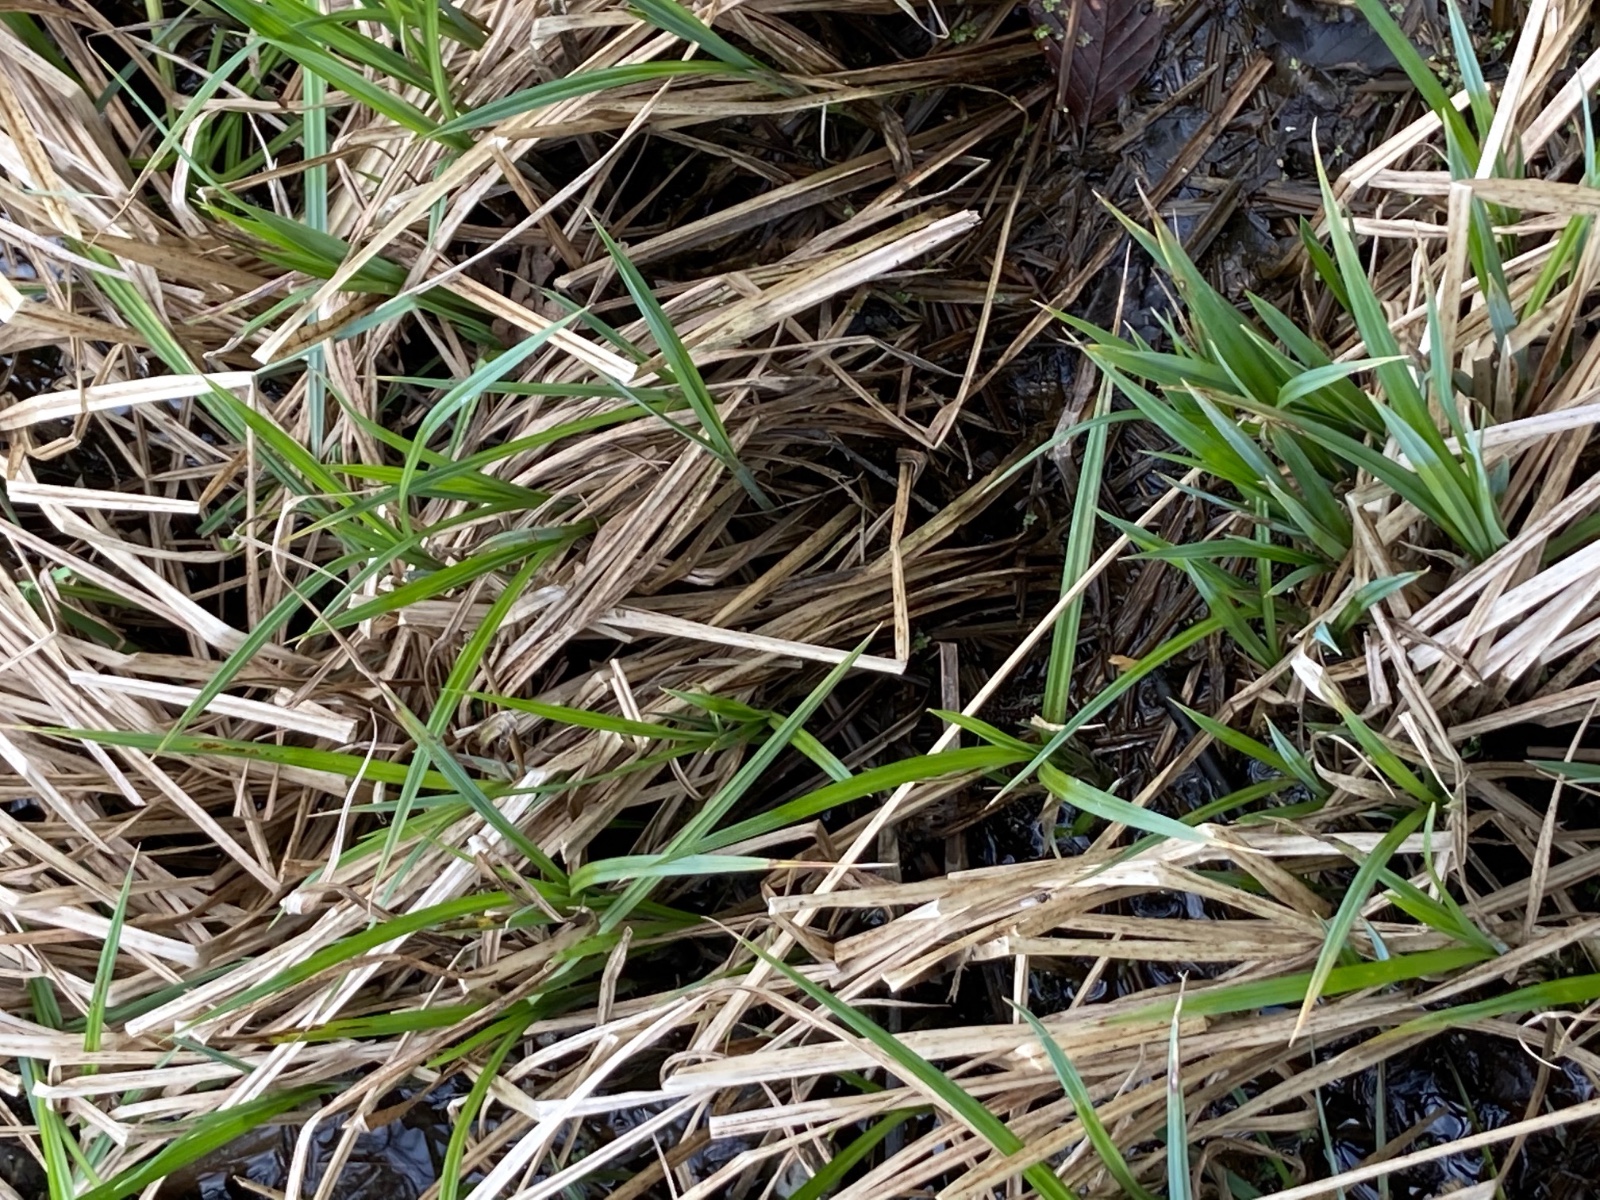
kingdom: Fungi
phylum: Basidiomycota
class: Pucciniomycetes
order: Pucciniales
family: Pucciniaceae
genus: Puccinia
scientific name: Puccinia caricina
